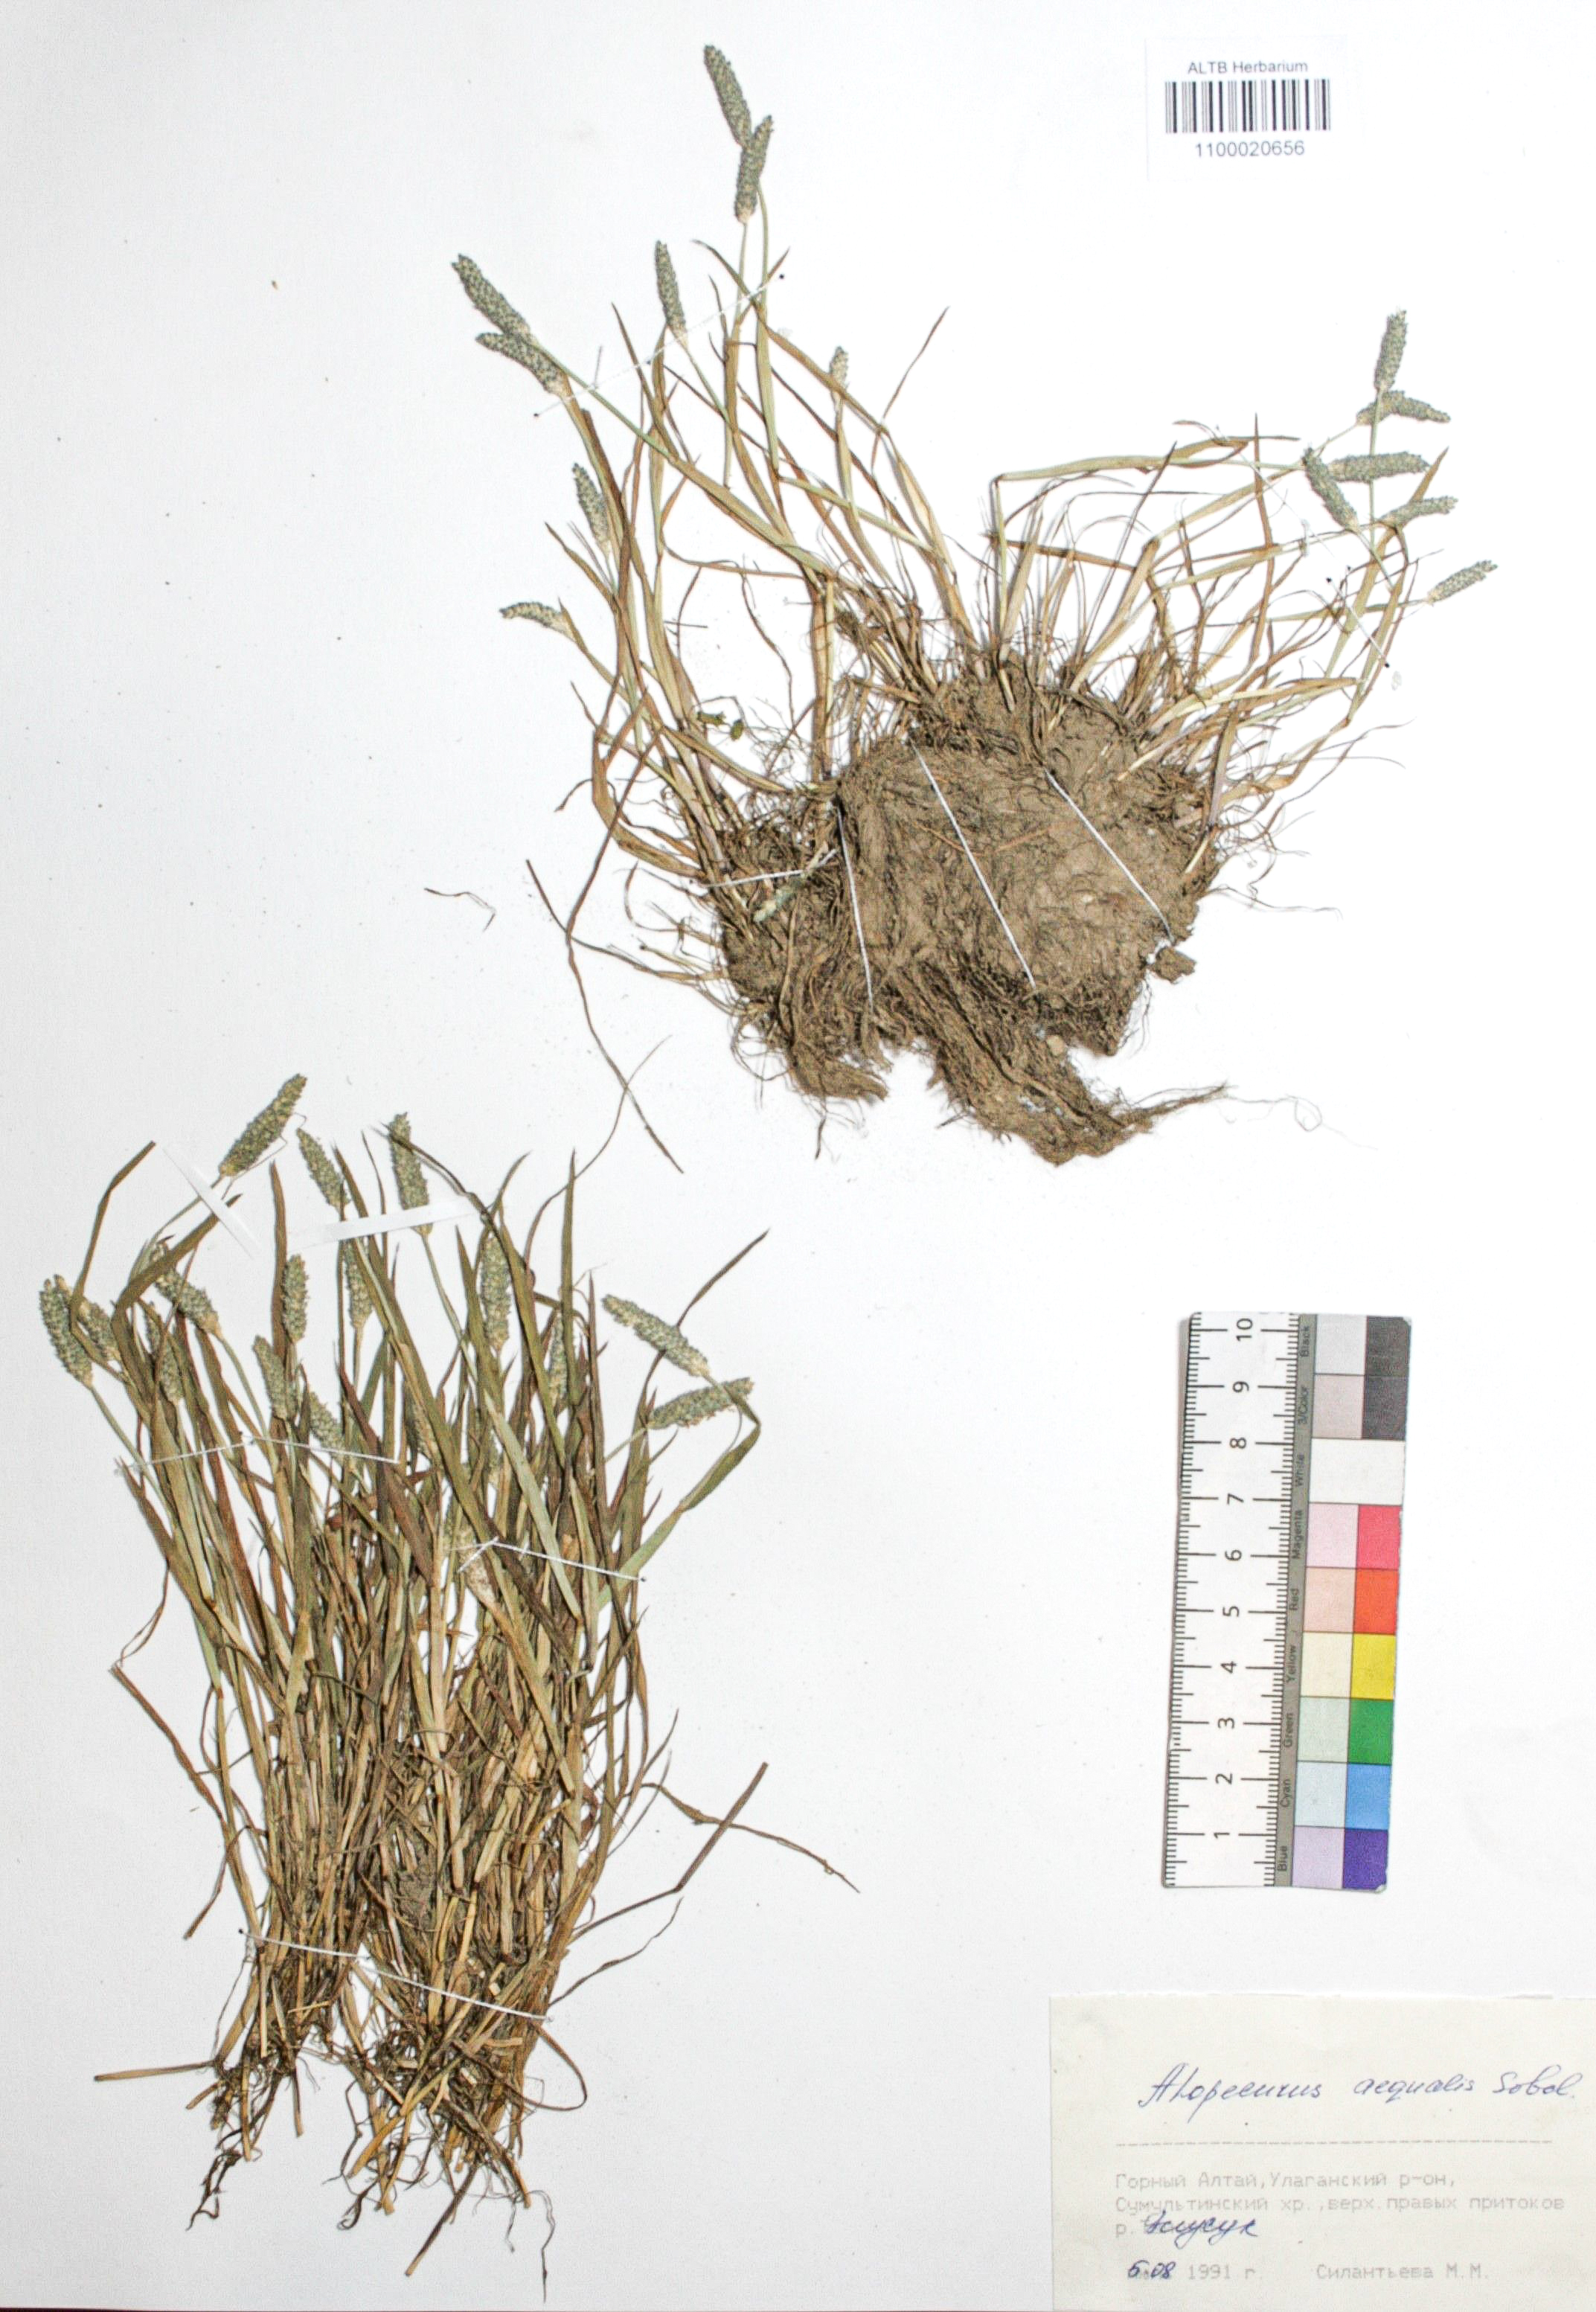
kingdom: Plantae
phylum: Tracheophyta
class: Liliopsida
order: Poales
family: Poaceae
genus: Alopecurus
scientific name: Alopecurus aequalis
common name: Orange foxtail
